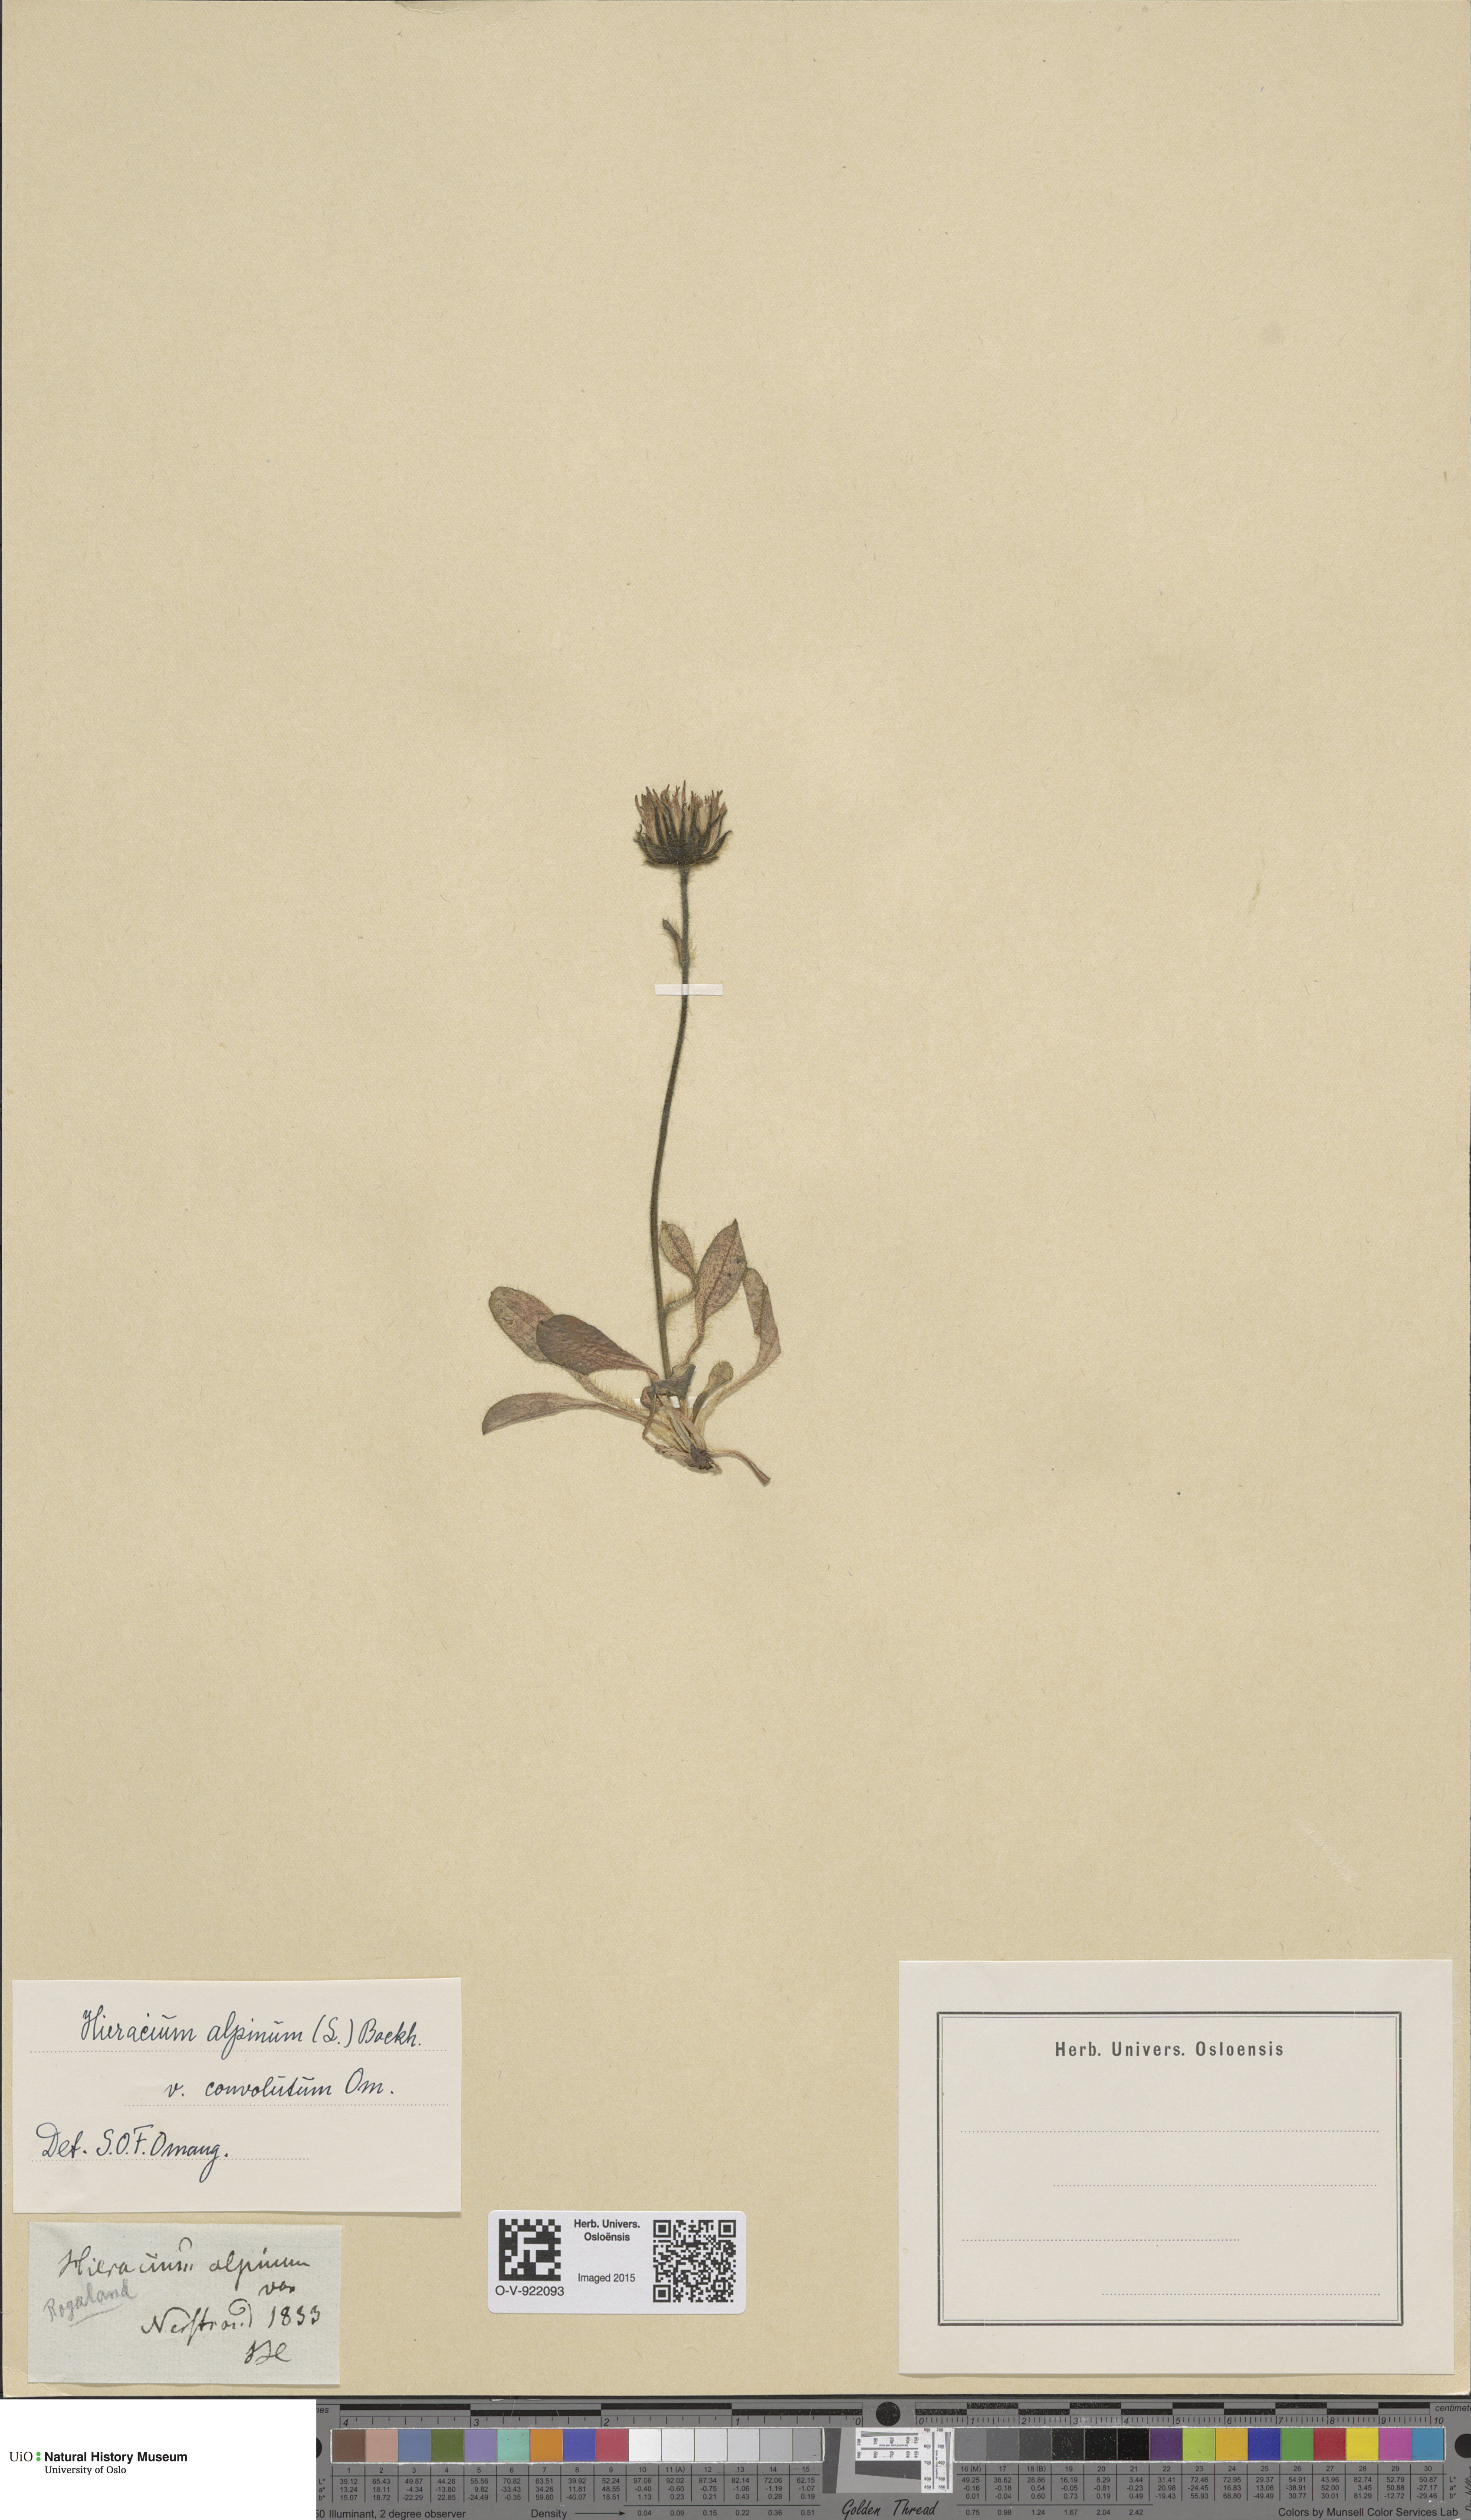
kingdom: Plantae
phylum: Tracheophyta
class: Magnoliopsida
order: Asterales
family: Asteraceae
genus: Hieracium
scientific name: Hieracium alpinum
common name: Alpine hawkweed
